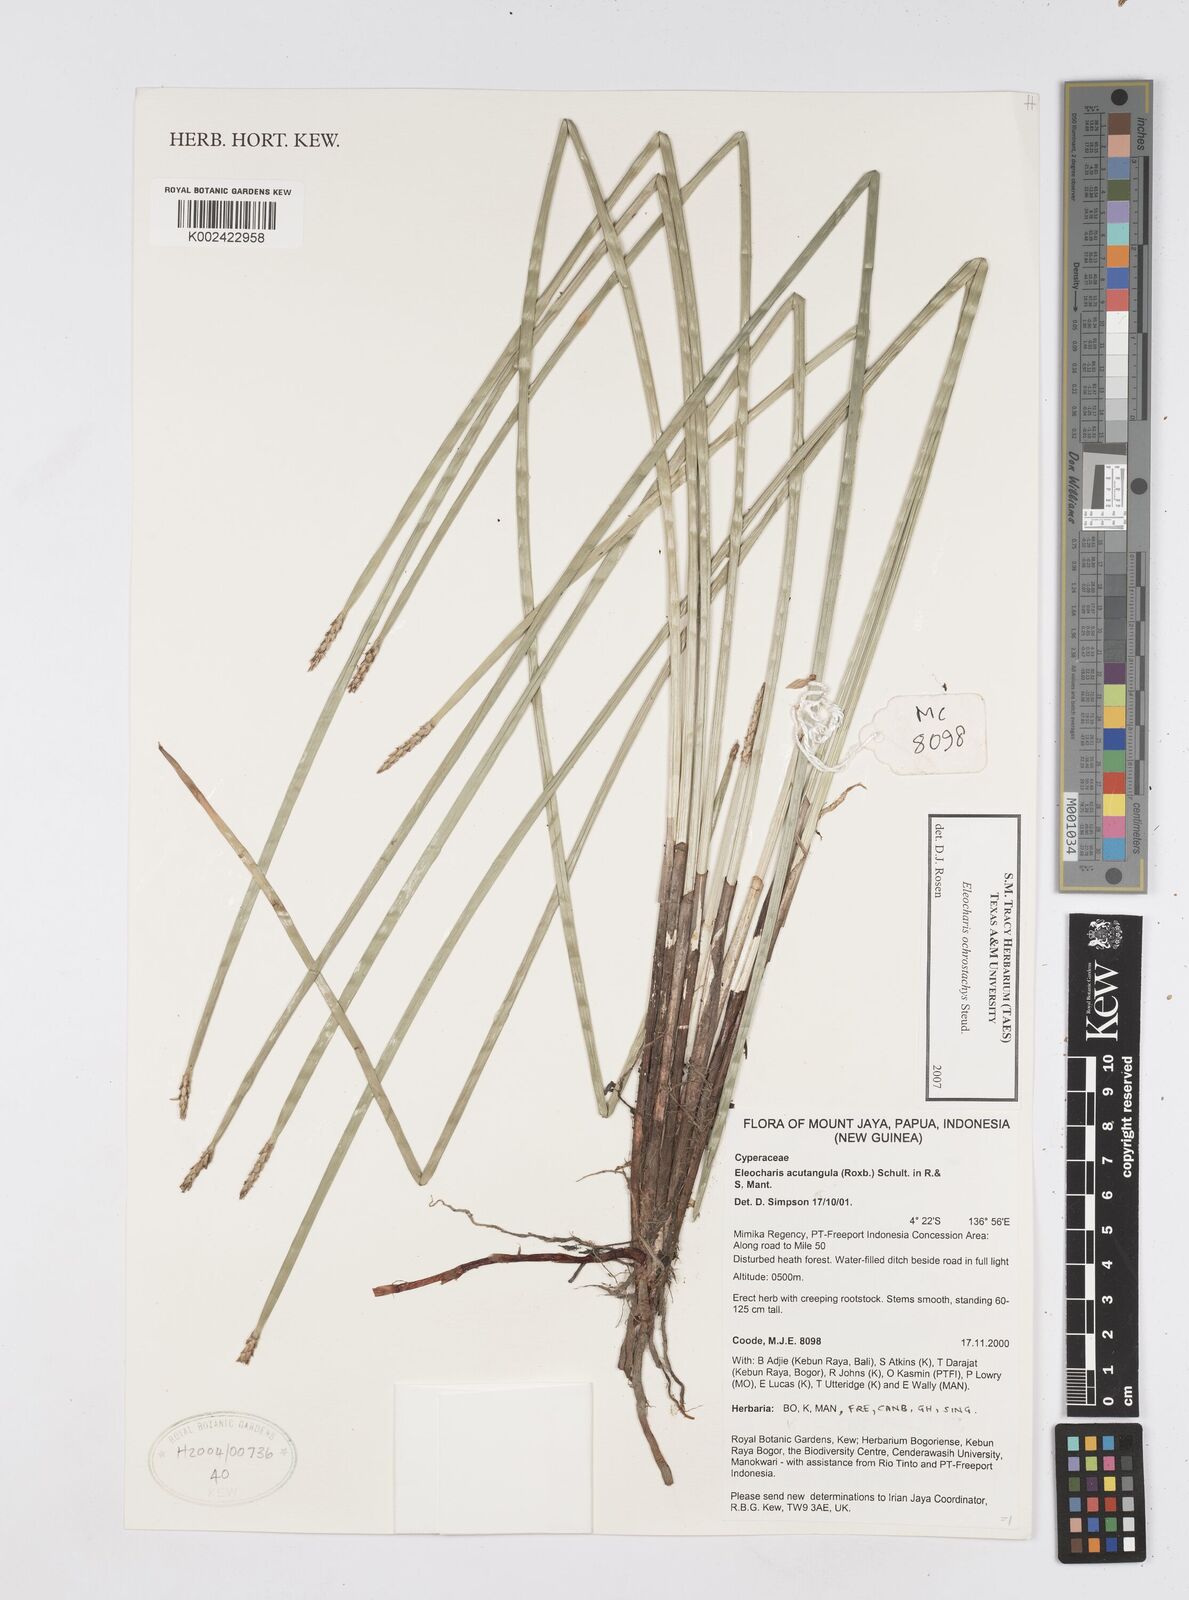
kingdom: Plantae
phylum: Tracheophyta
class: Liliopsida
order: Poales
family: Cyperaceae
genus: Eleocharis
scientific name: Eleocharis ochrostachys
